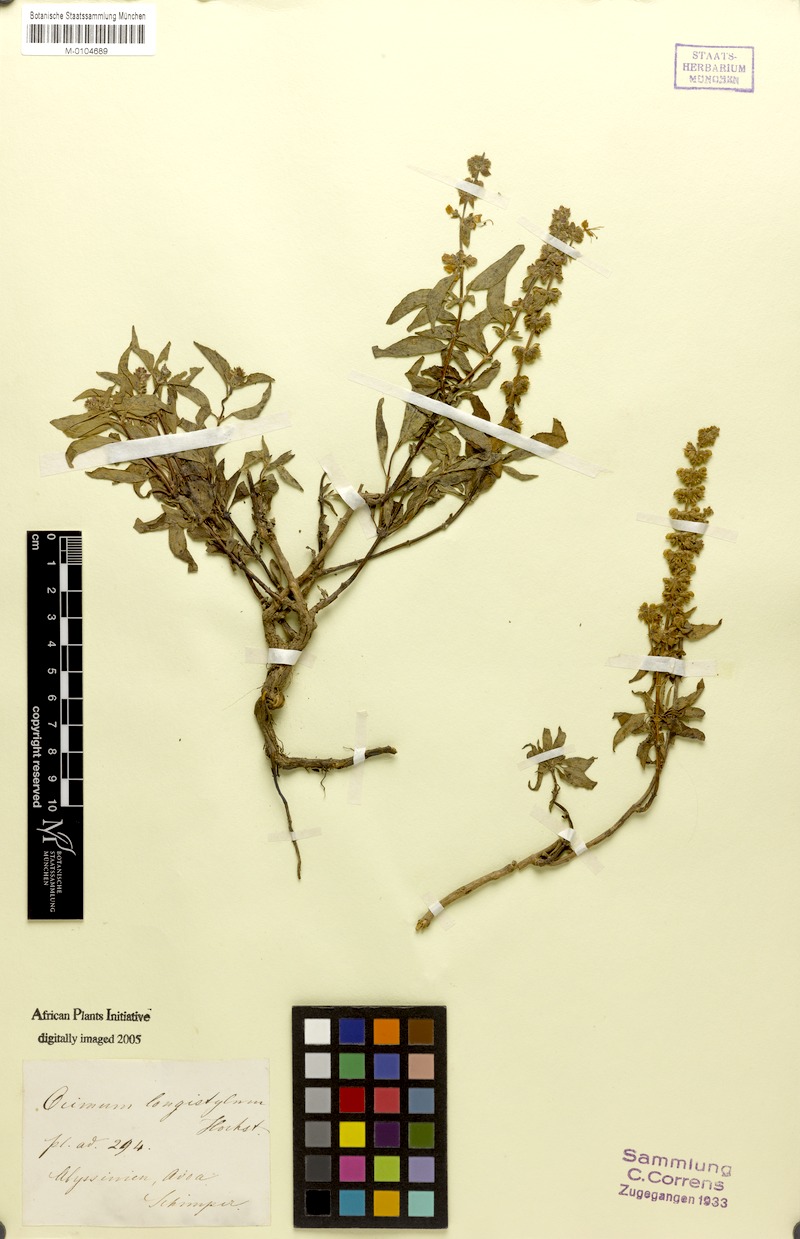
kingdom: Plantae
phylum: Tracheophyta
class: Magnoliopsida
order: Lamiales
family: Lamiaceae
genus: Ocimum
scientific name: Ocimum forskoelei
